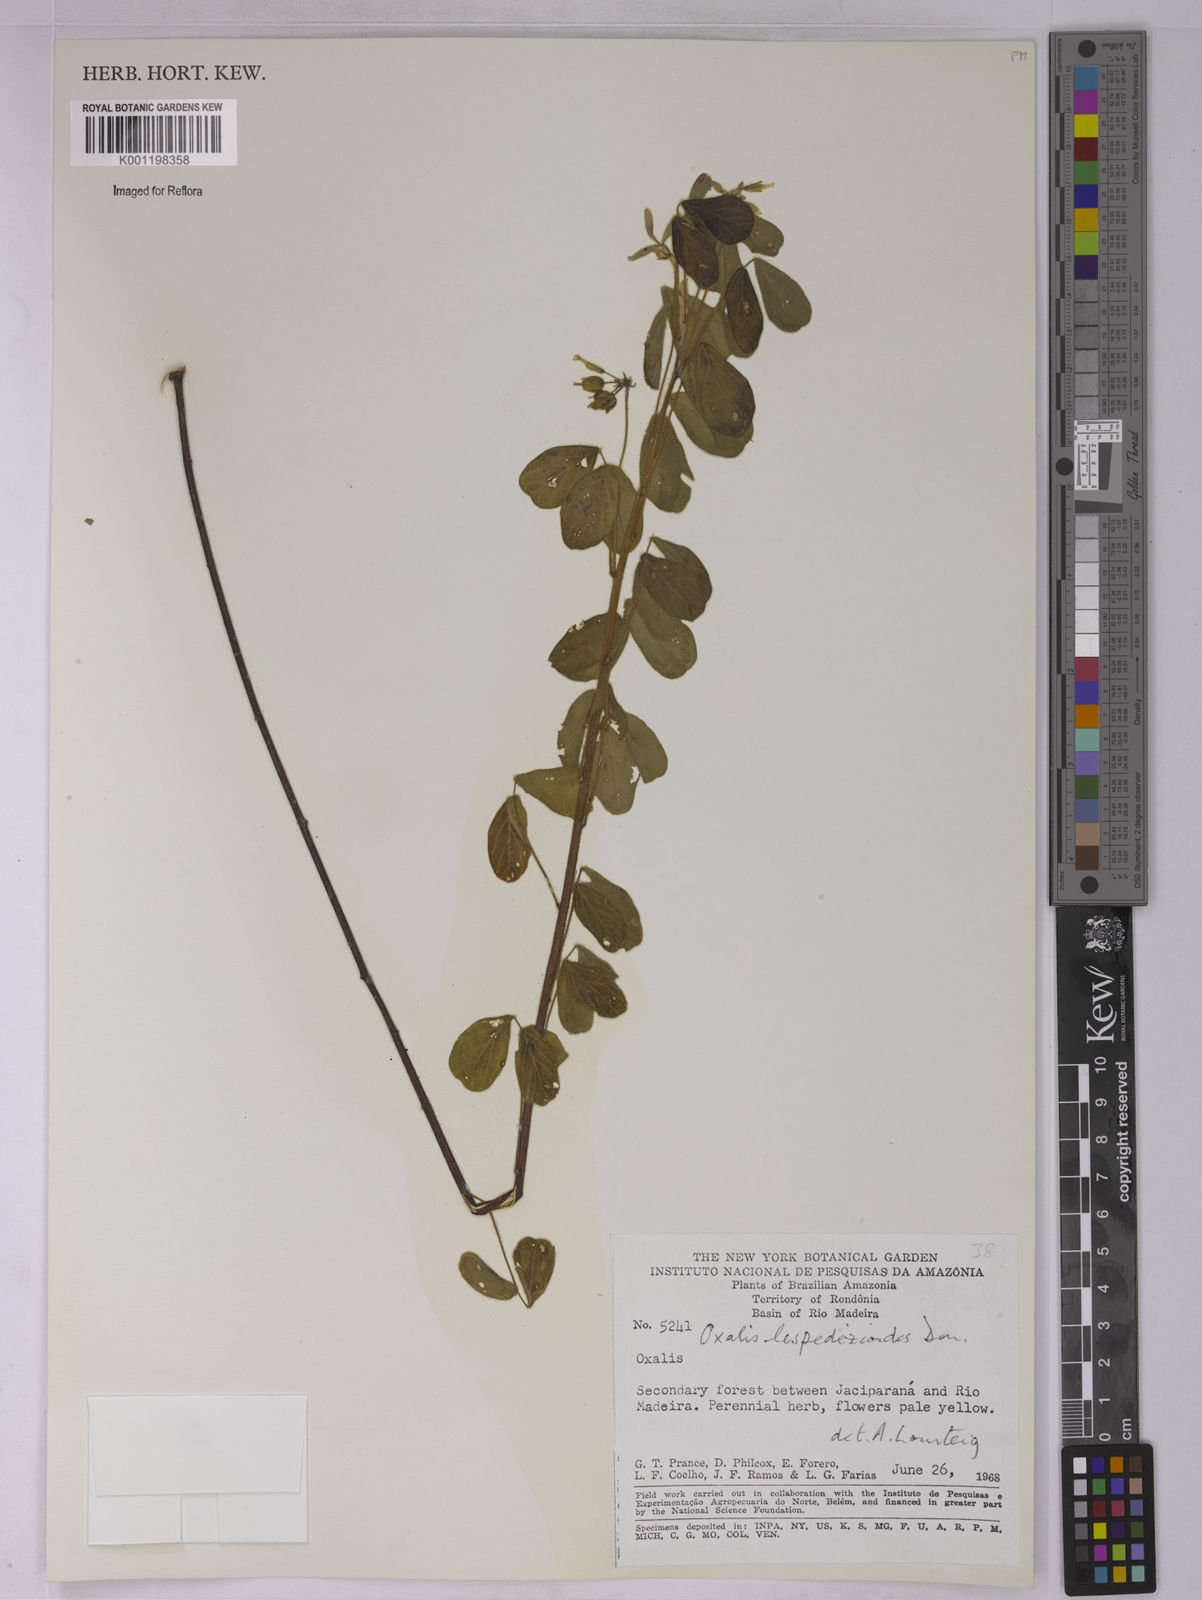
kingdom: Plantae
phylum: Tracheophyta
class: Magnoliopsida
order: Oxalidales
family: Oxalidaceae
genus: Oxalis
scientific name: Oxalis lespedezioides
